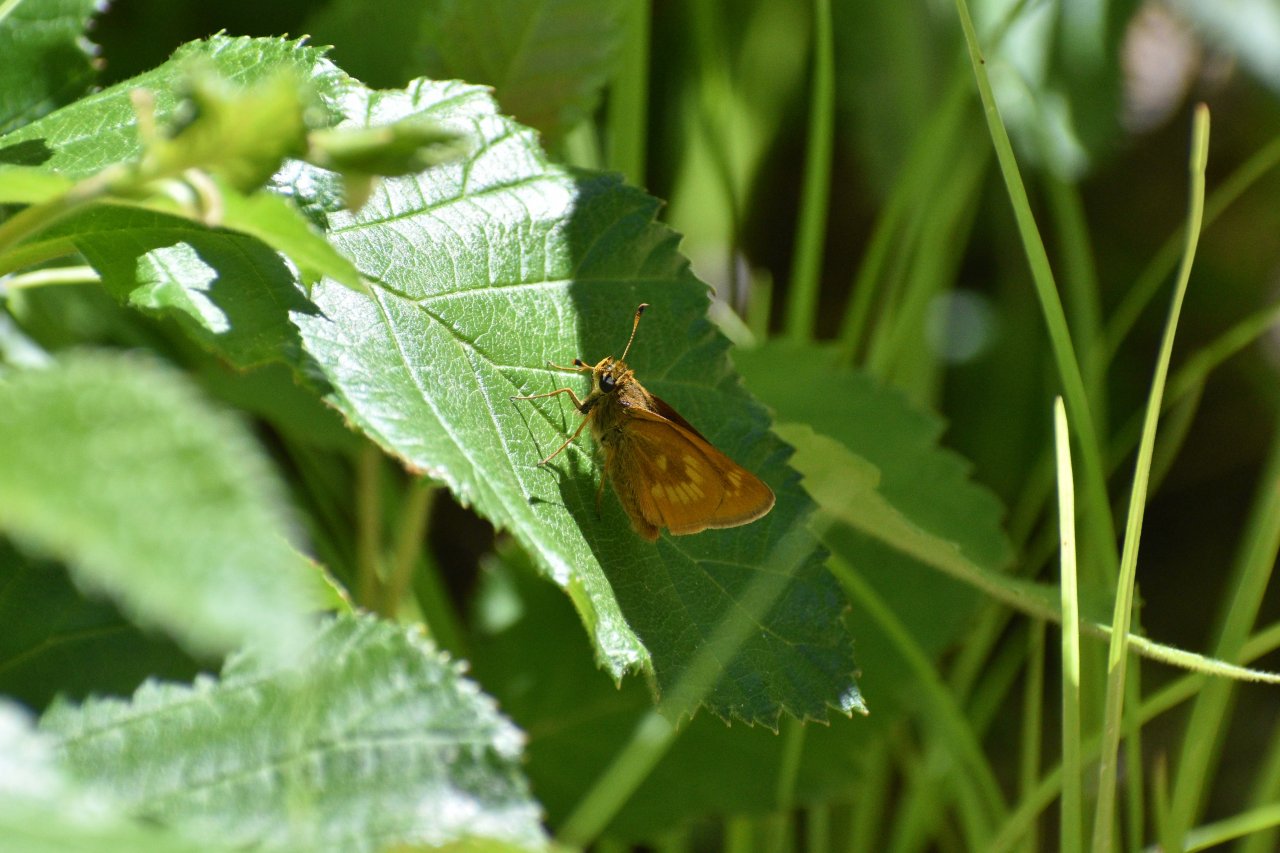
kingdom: Animalia
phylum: Arthropoda
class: Insecta
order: Lepidoptera
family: Hesperiidae
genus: Polites
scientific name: Polites
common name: Long Dash Skipper
